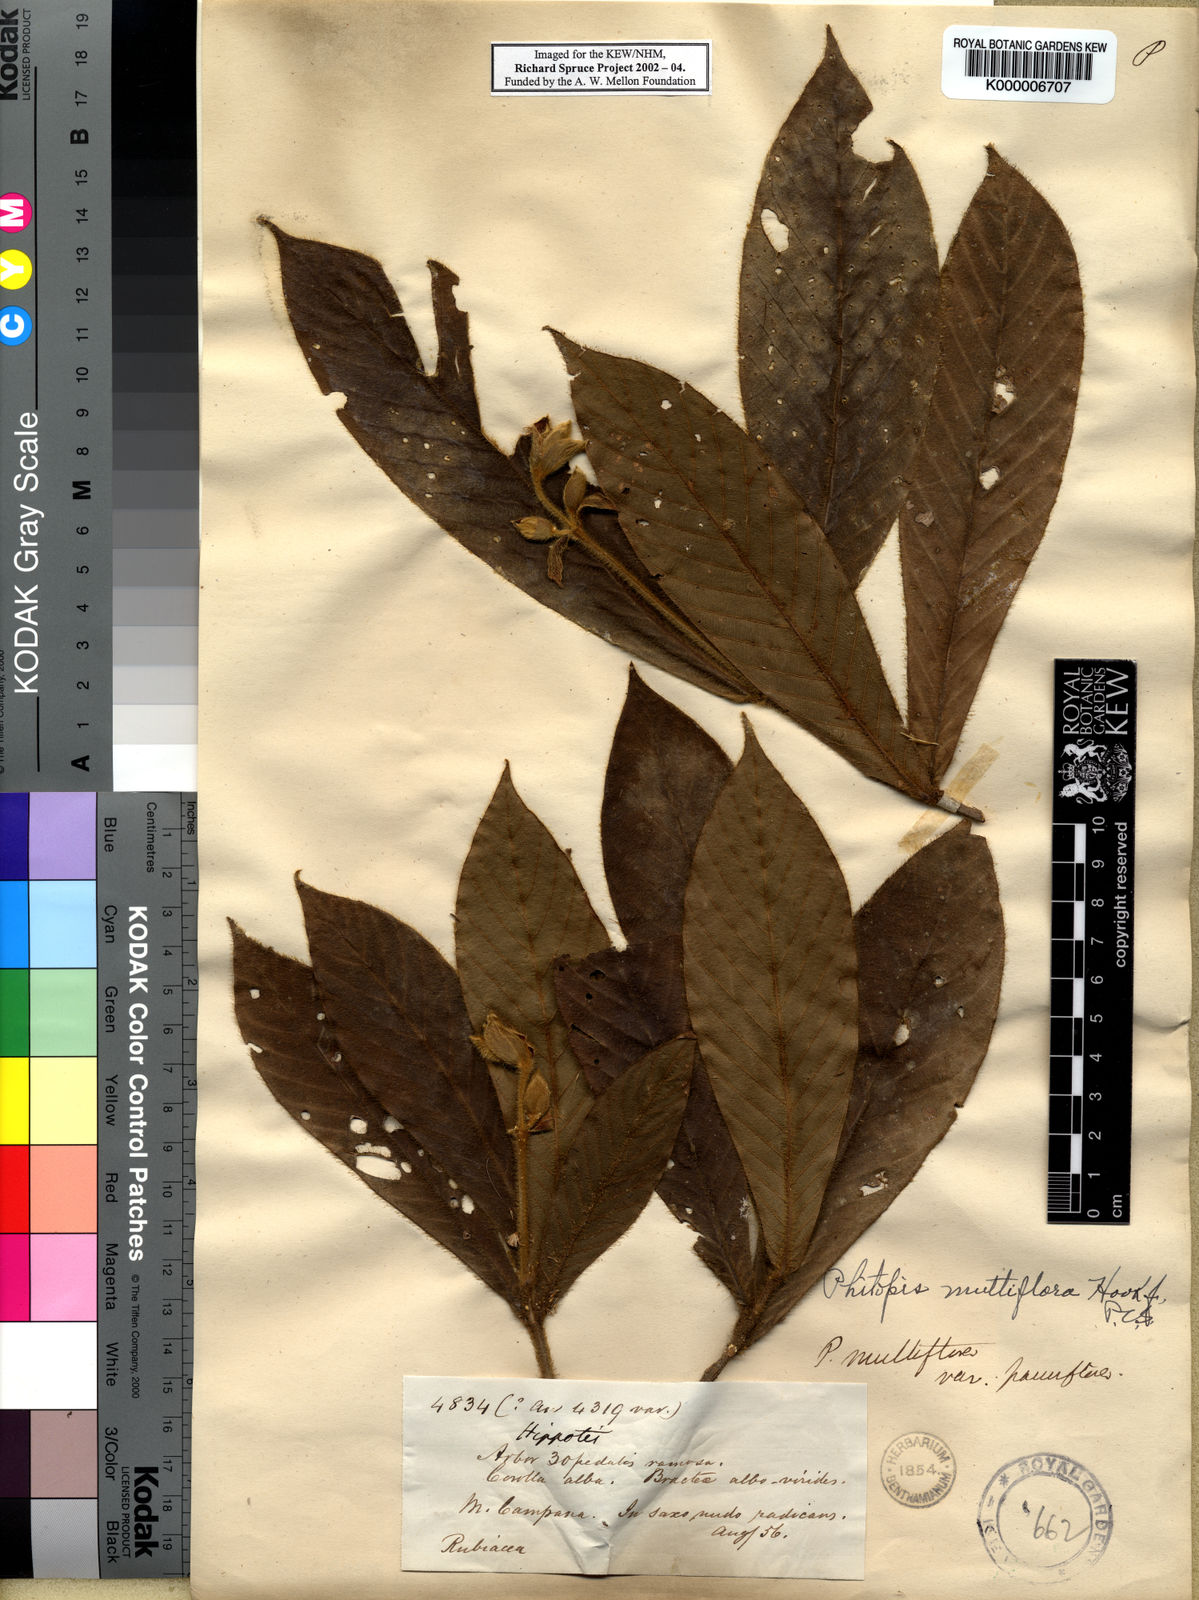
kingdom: Plantae
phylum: Tracheophyta
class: Magnoliopsida
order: Gentianales
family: Rubiaceae
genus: Schizocalyx
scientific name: Schizocalyx multiflorus
